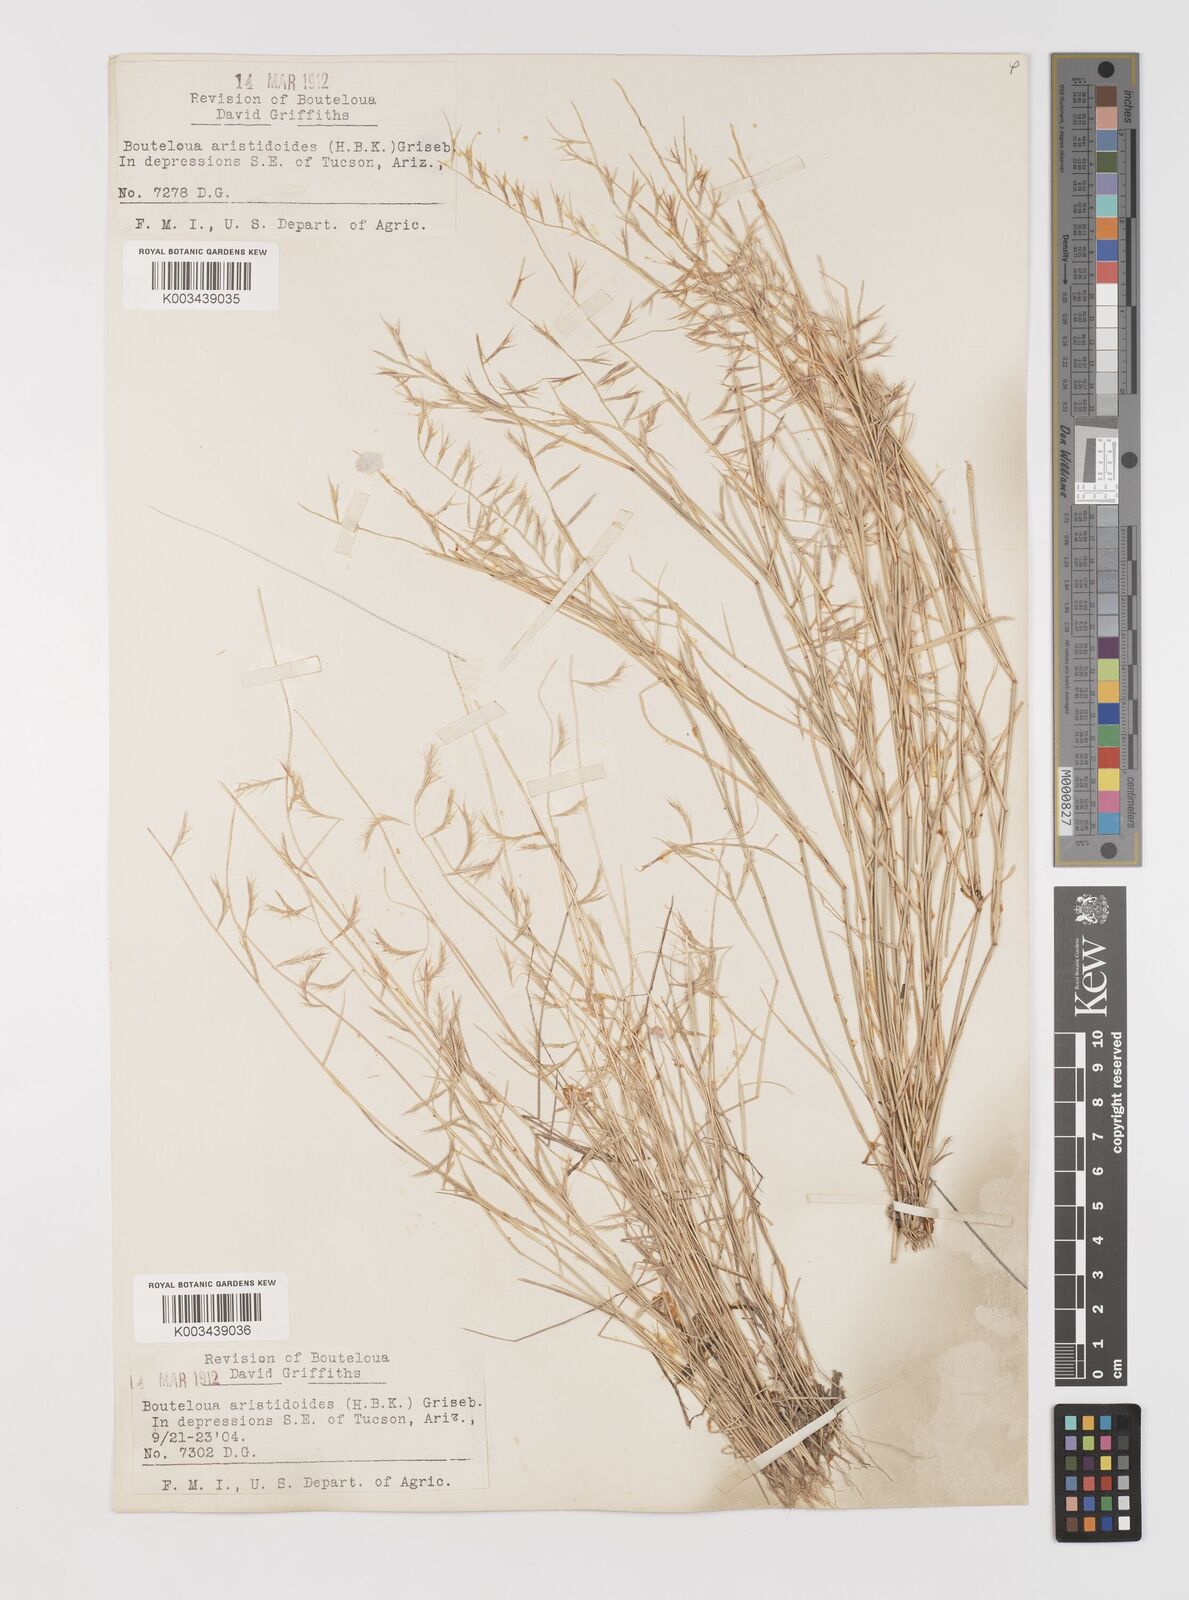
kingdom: Plantae
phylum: Tracheophyta
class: Liliopsida
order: Poales
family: Poaceae
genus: Bouteloua
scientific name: Bouteloua aristidoides
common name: Needle grama
